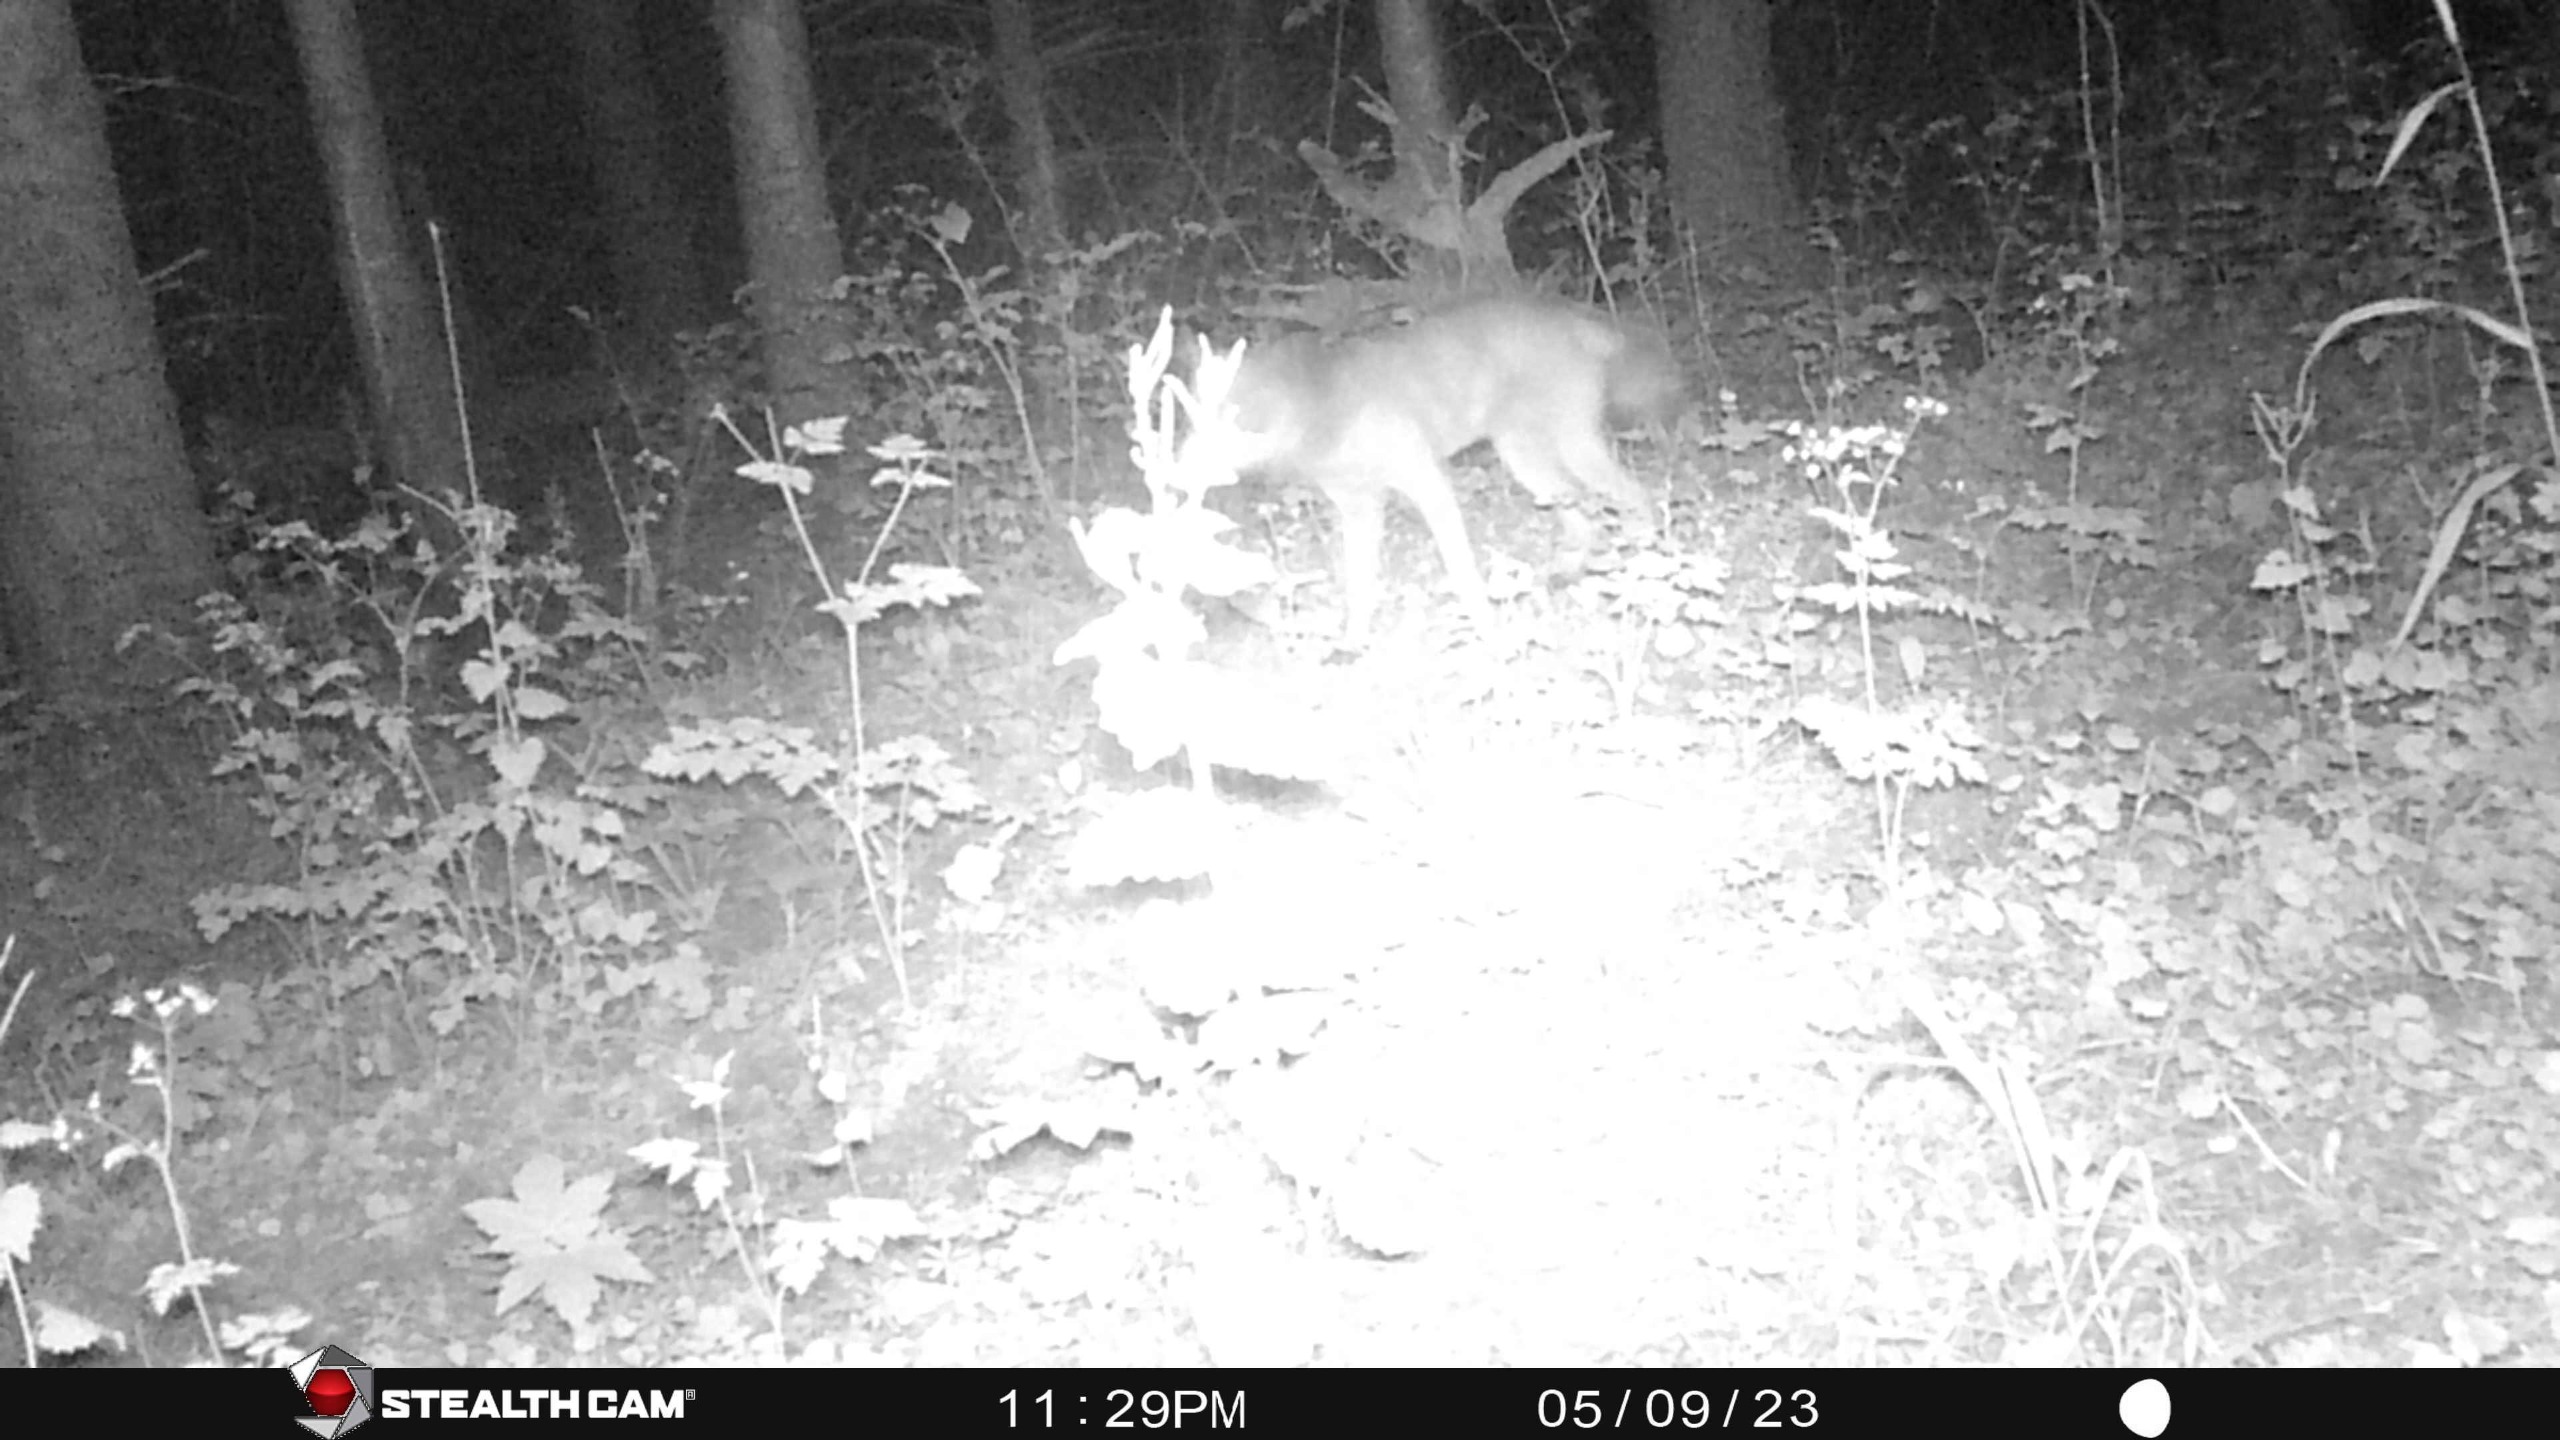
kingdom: Animalia
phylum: Chordata
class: Mammalia
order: Carnivora
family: Canidae
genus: Vulpes
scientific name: Vulpes vulpes
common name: Ræv
